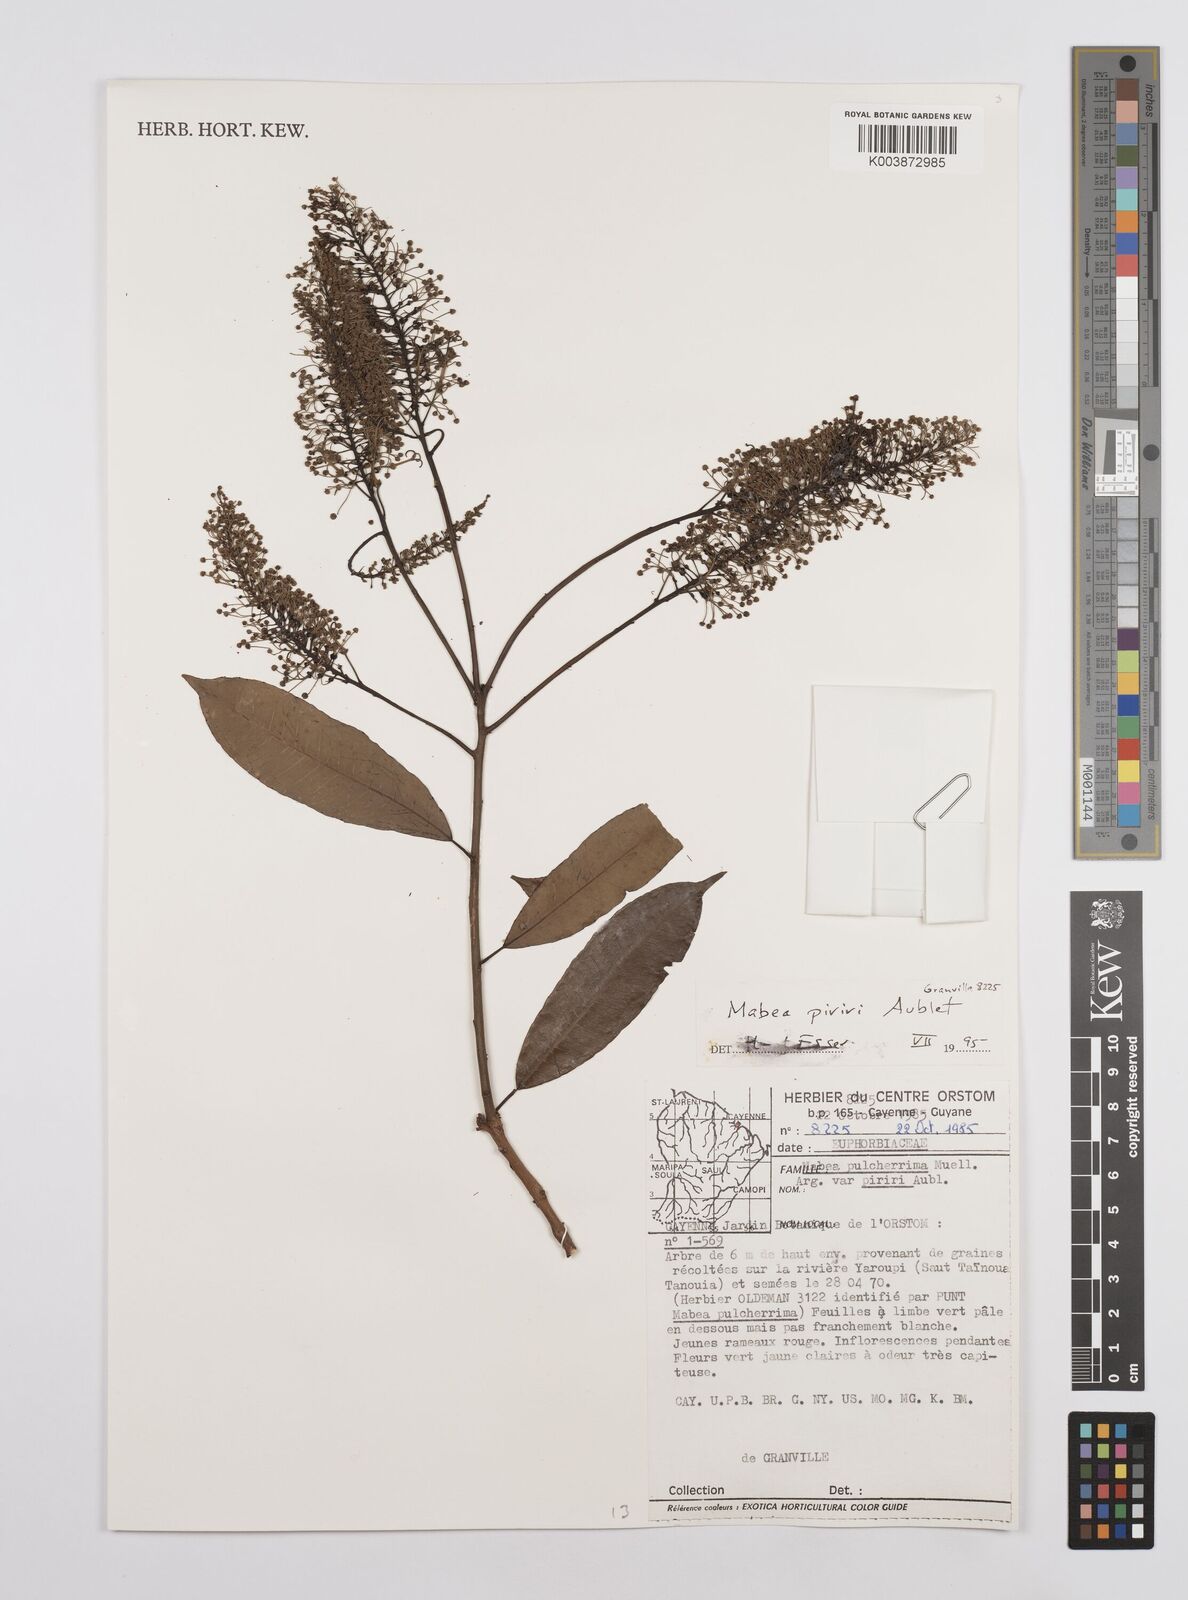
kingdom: Plantae
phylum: Tracheophyta
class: Magnoliopsida
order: Malpighiales
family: Euphorbiaceae
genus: Mabea
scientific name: Mabea piriri
